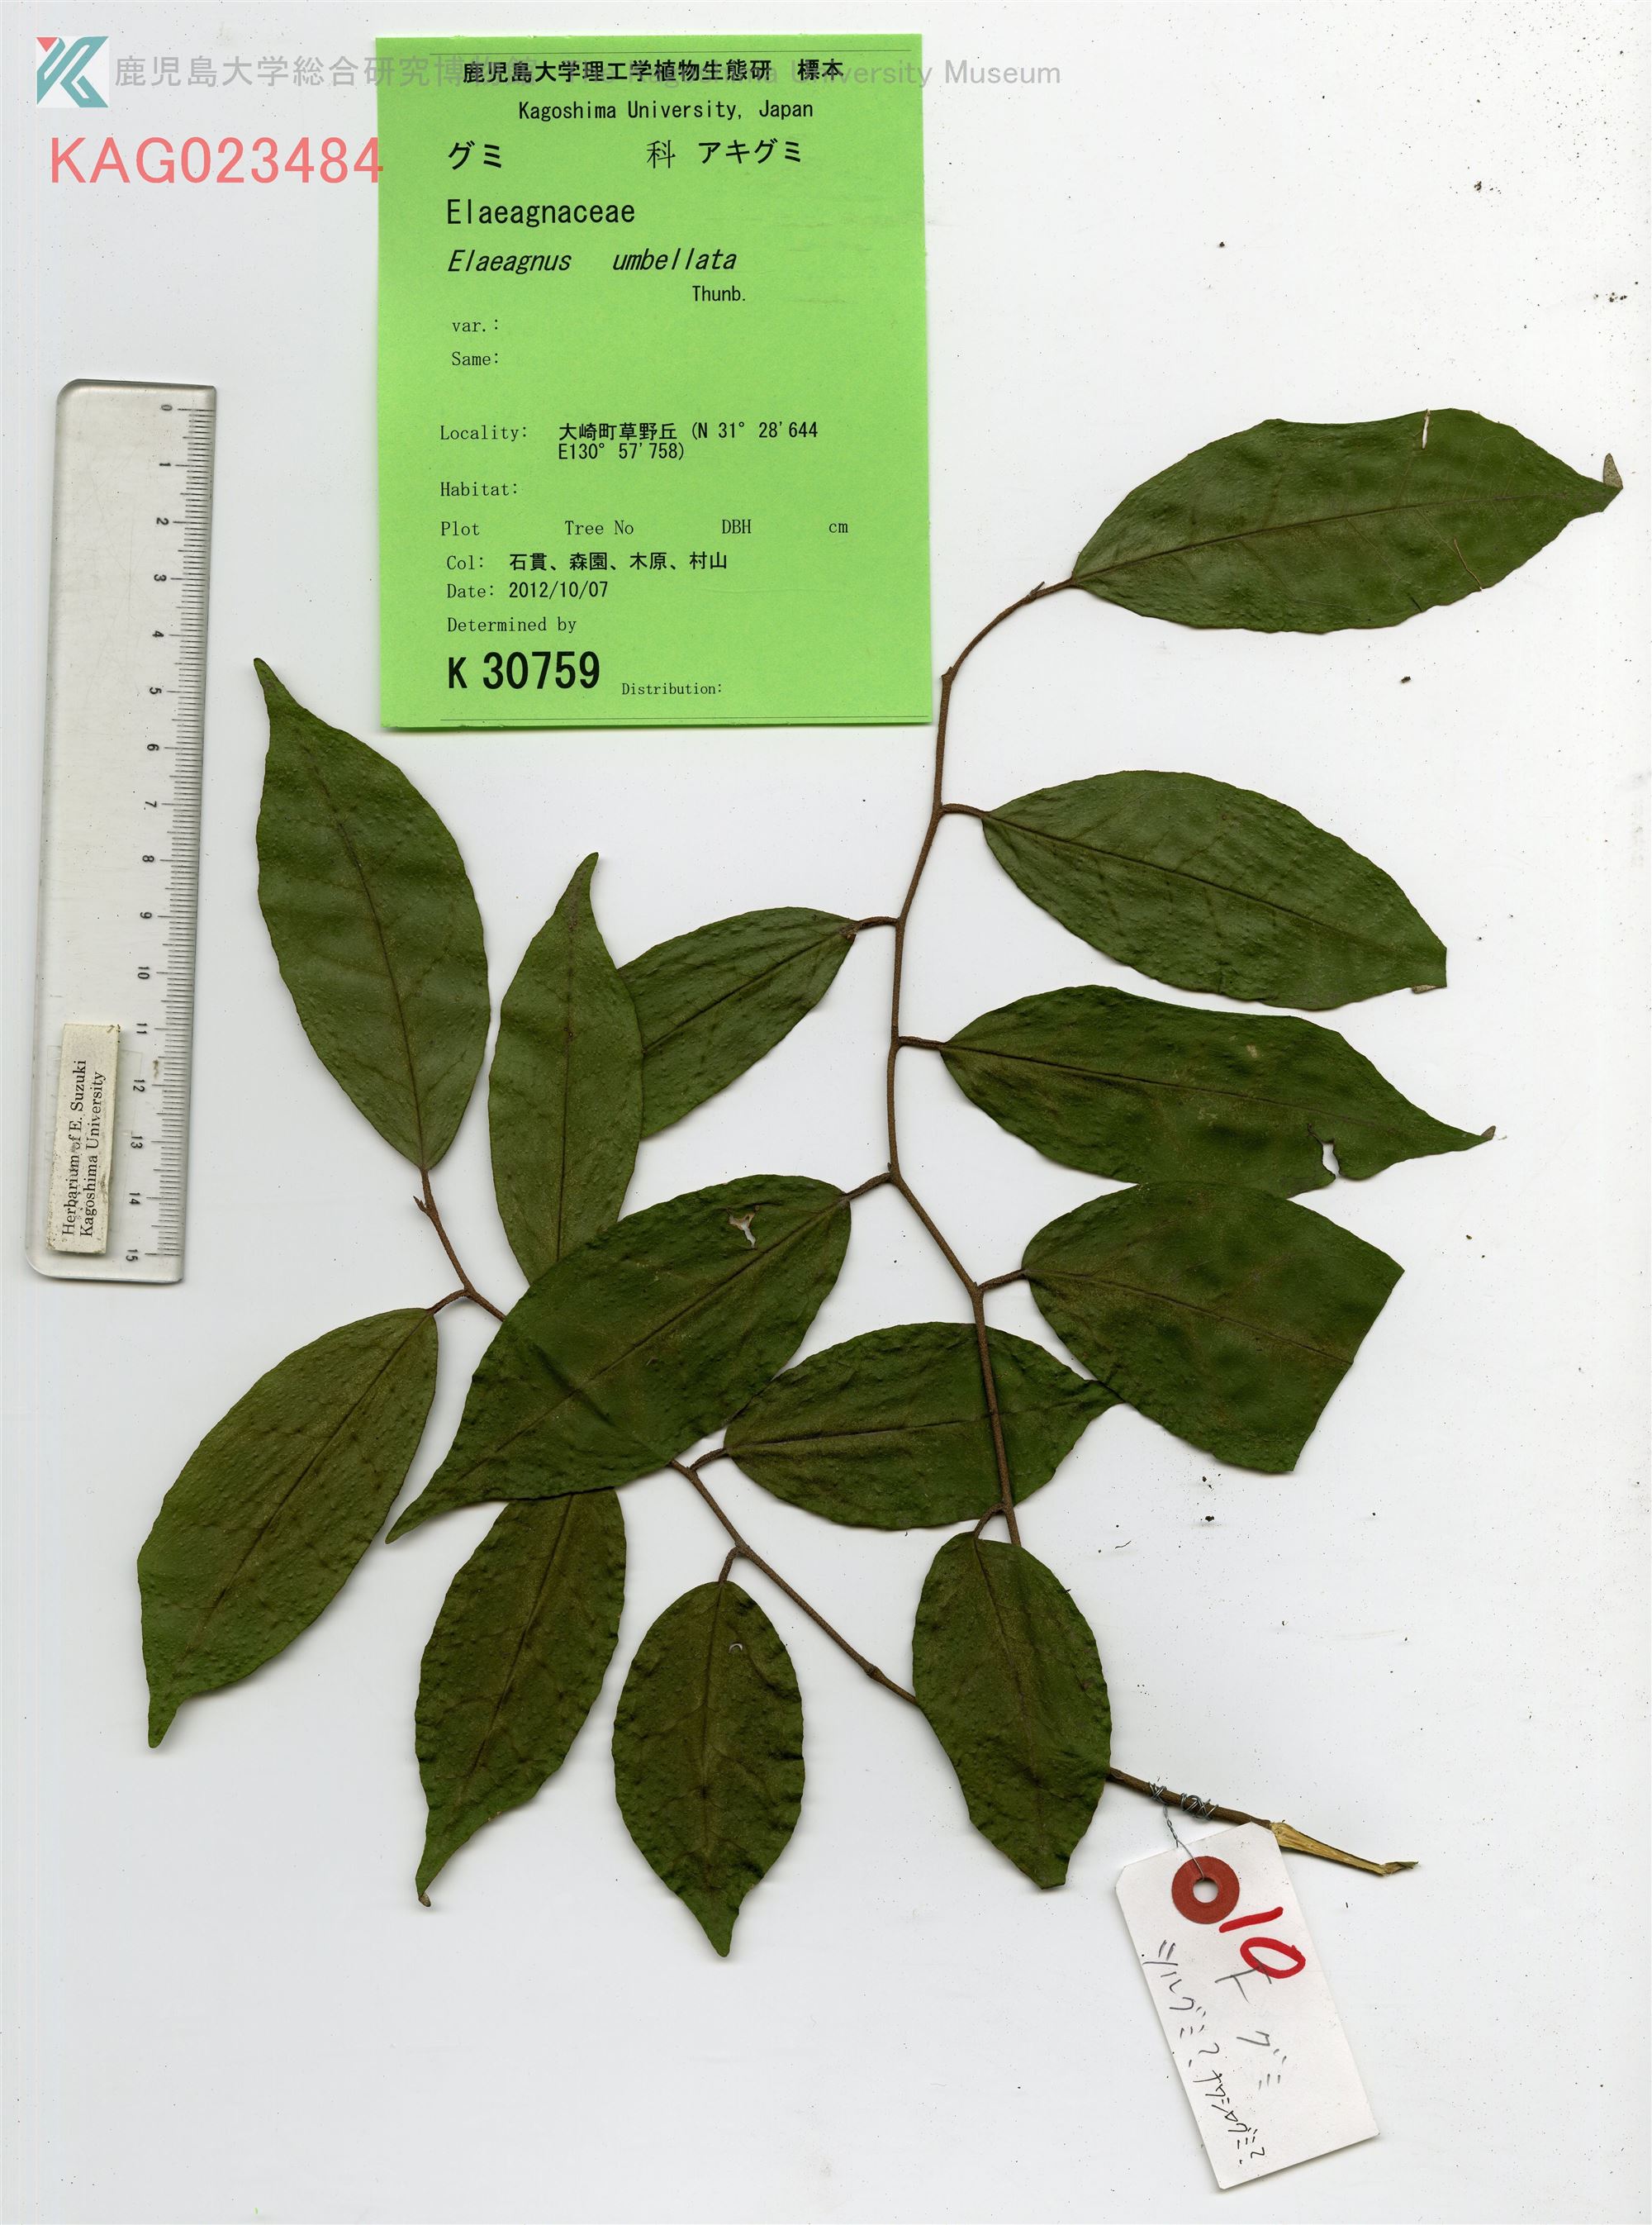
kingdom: Plantae
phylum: Tracheophyta
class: Magnoliopsida
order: Rosales
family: Elaeagnaceae
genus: Elaeagnus
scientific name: Elaeagnus umbellata
